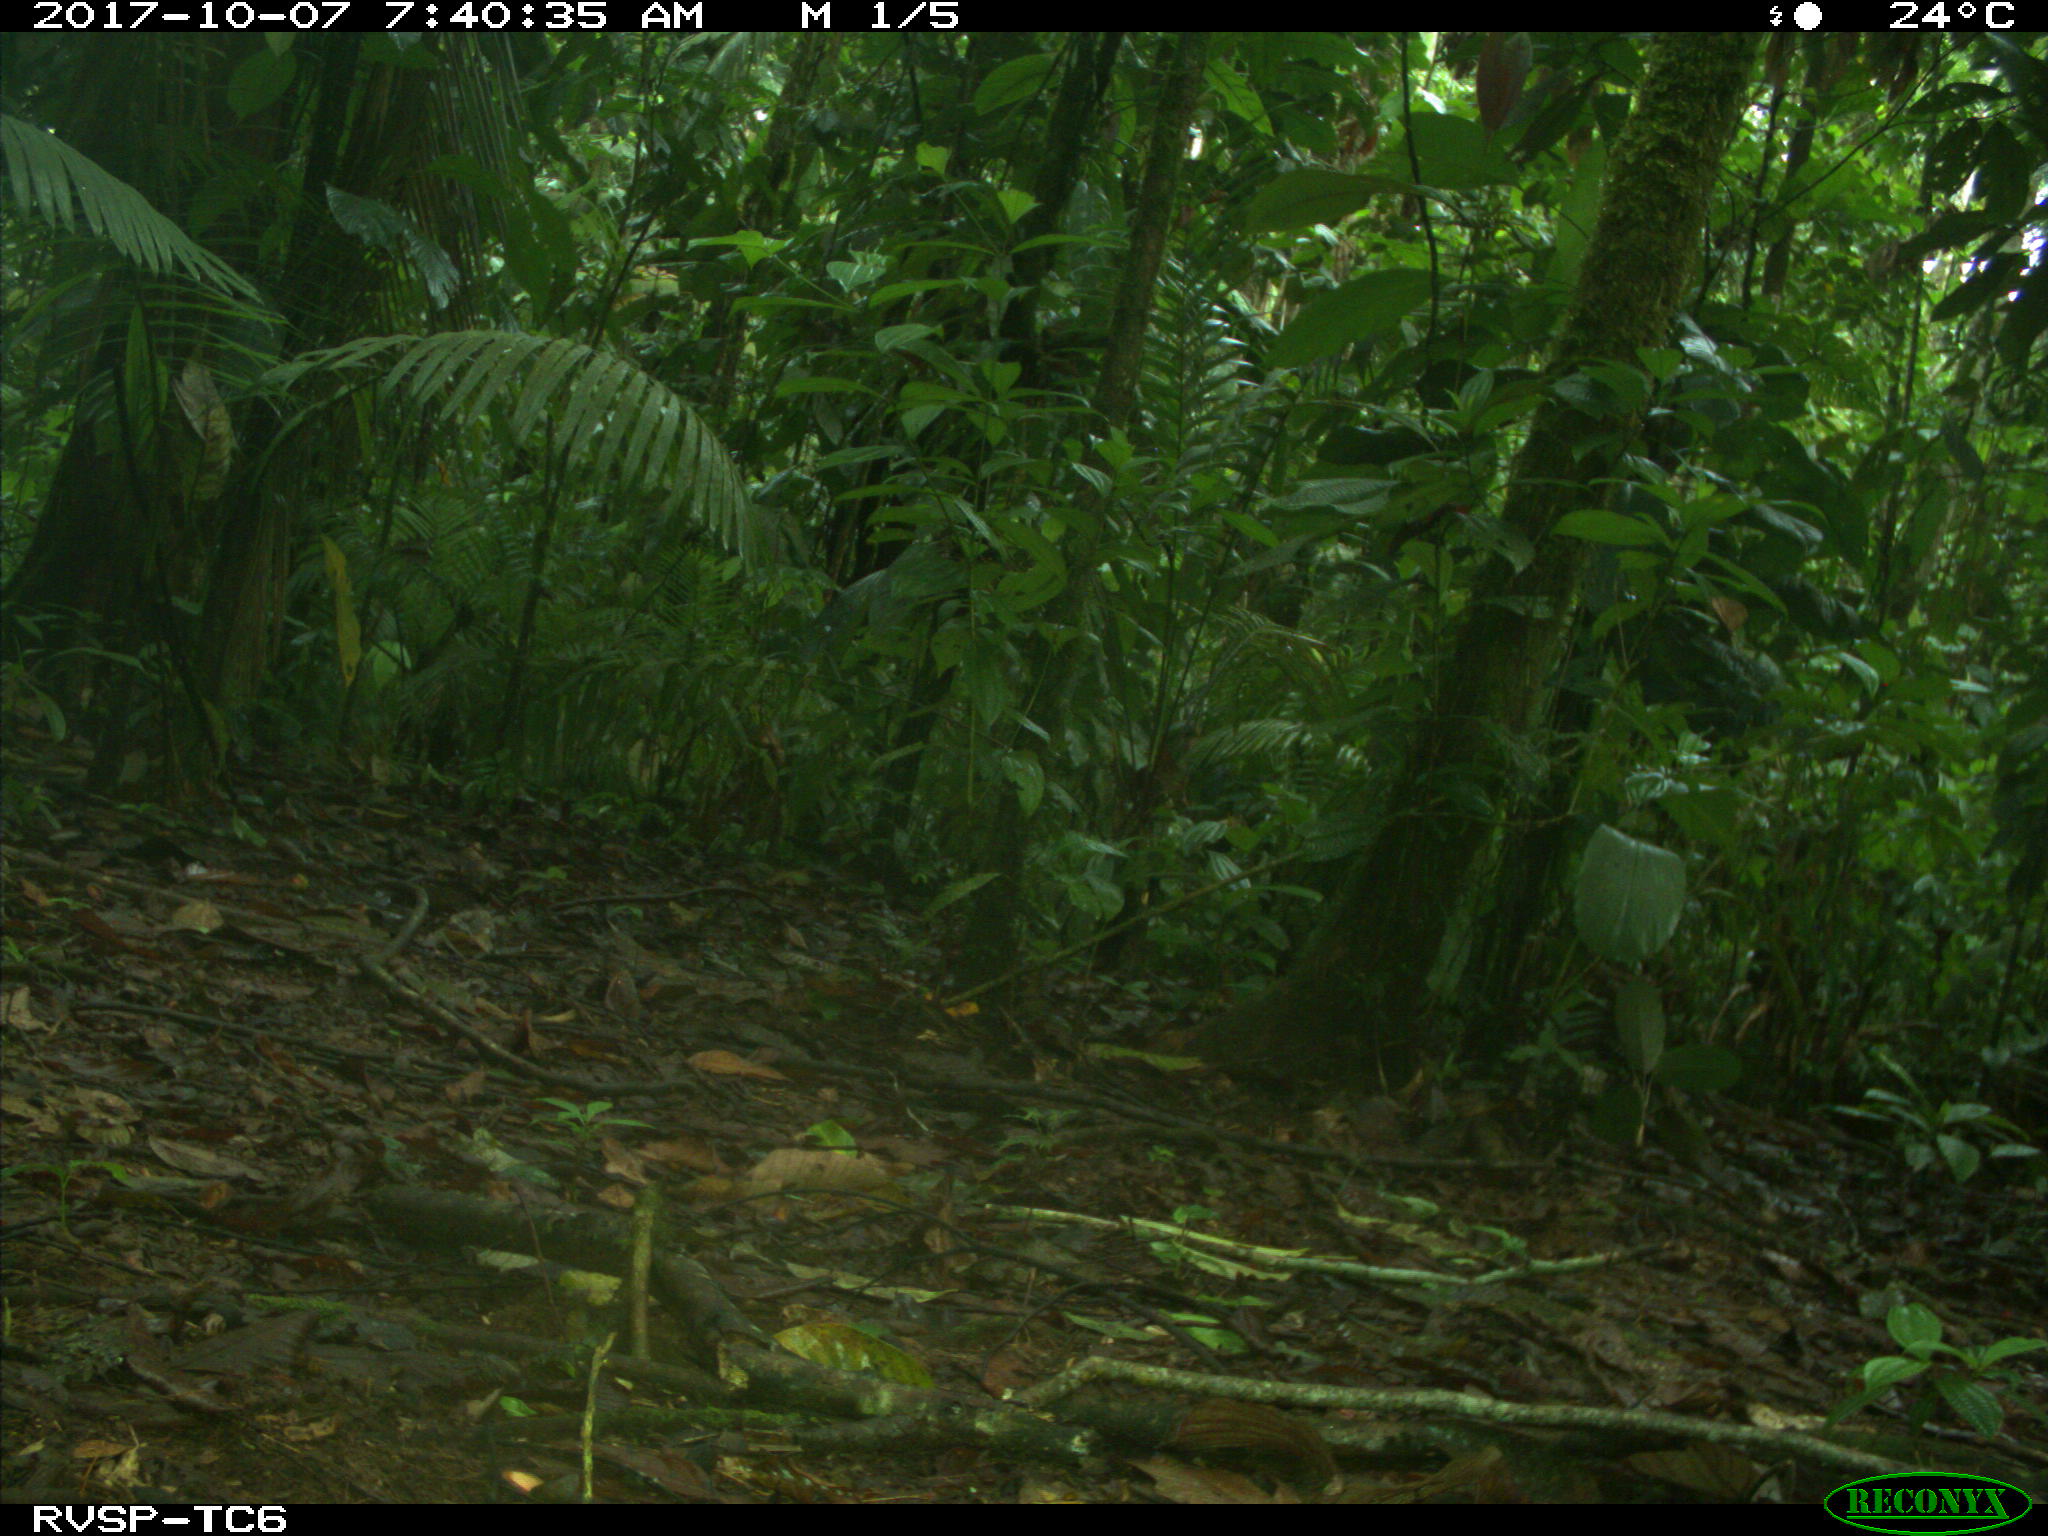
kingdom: Animalia
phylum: Chordata
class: Mammalia
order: Artiodactyla
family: Tayassuidae
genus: Tayassu
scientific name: Tayassu pecari
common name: White-lipped peccary
